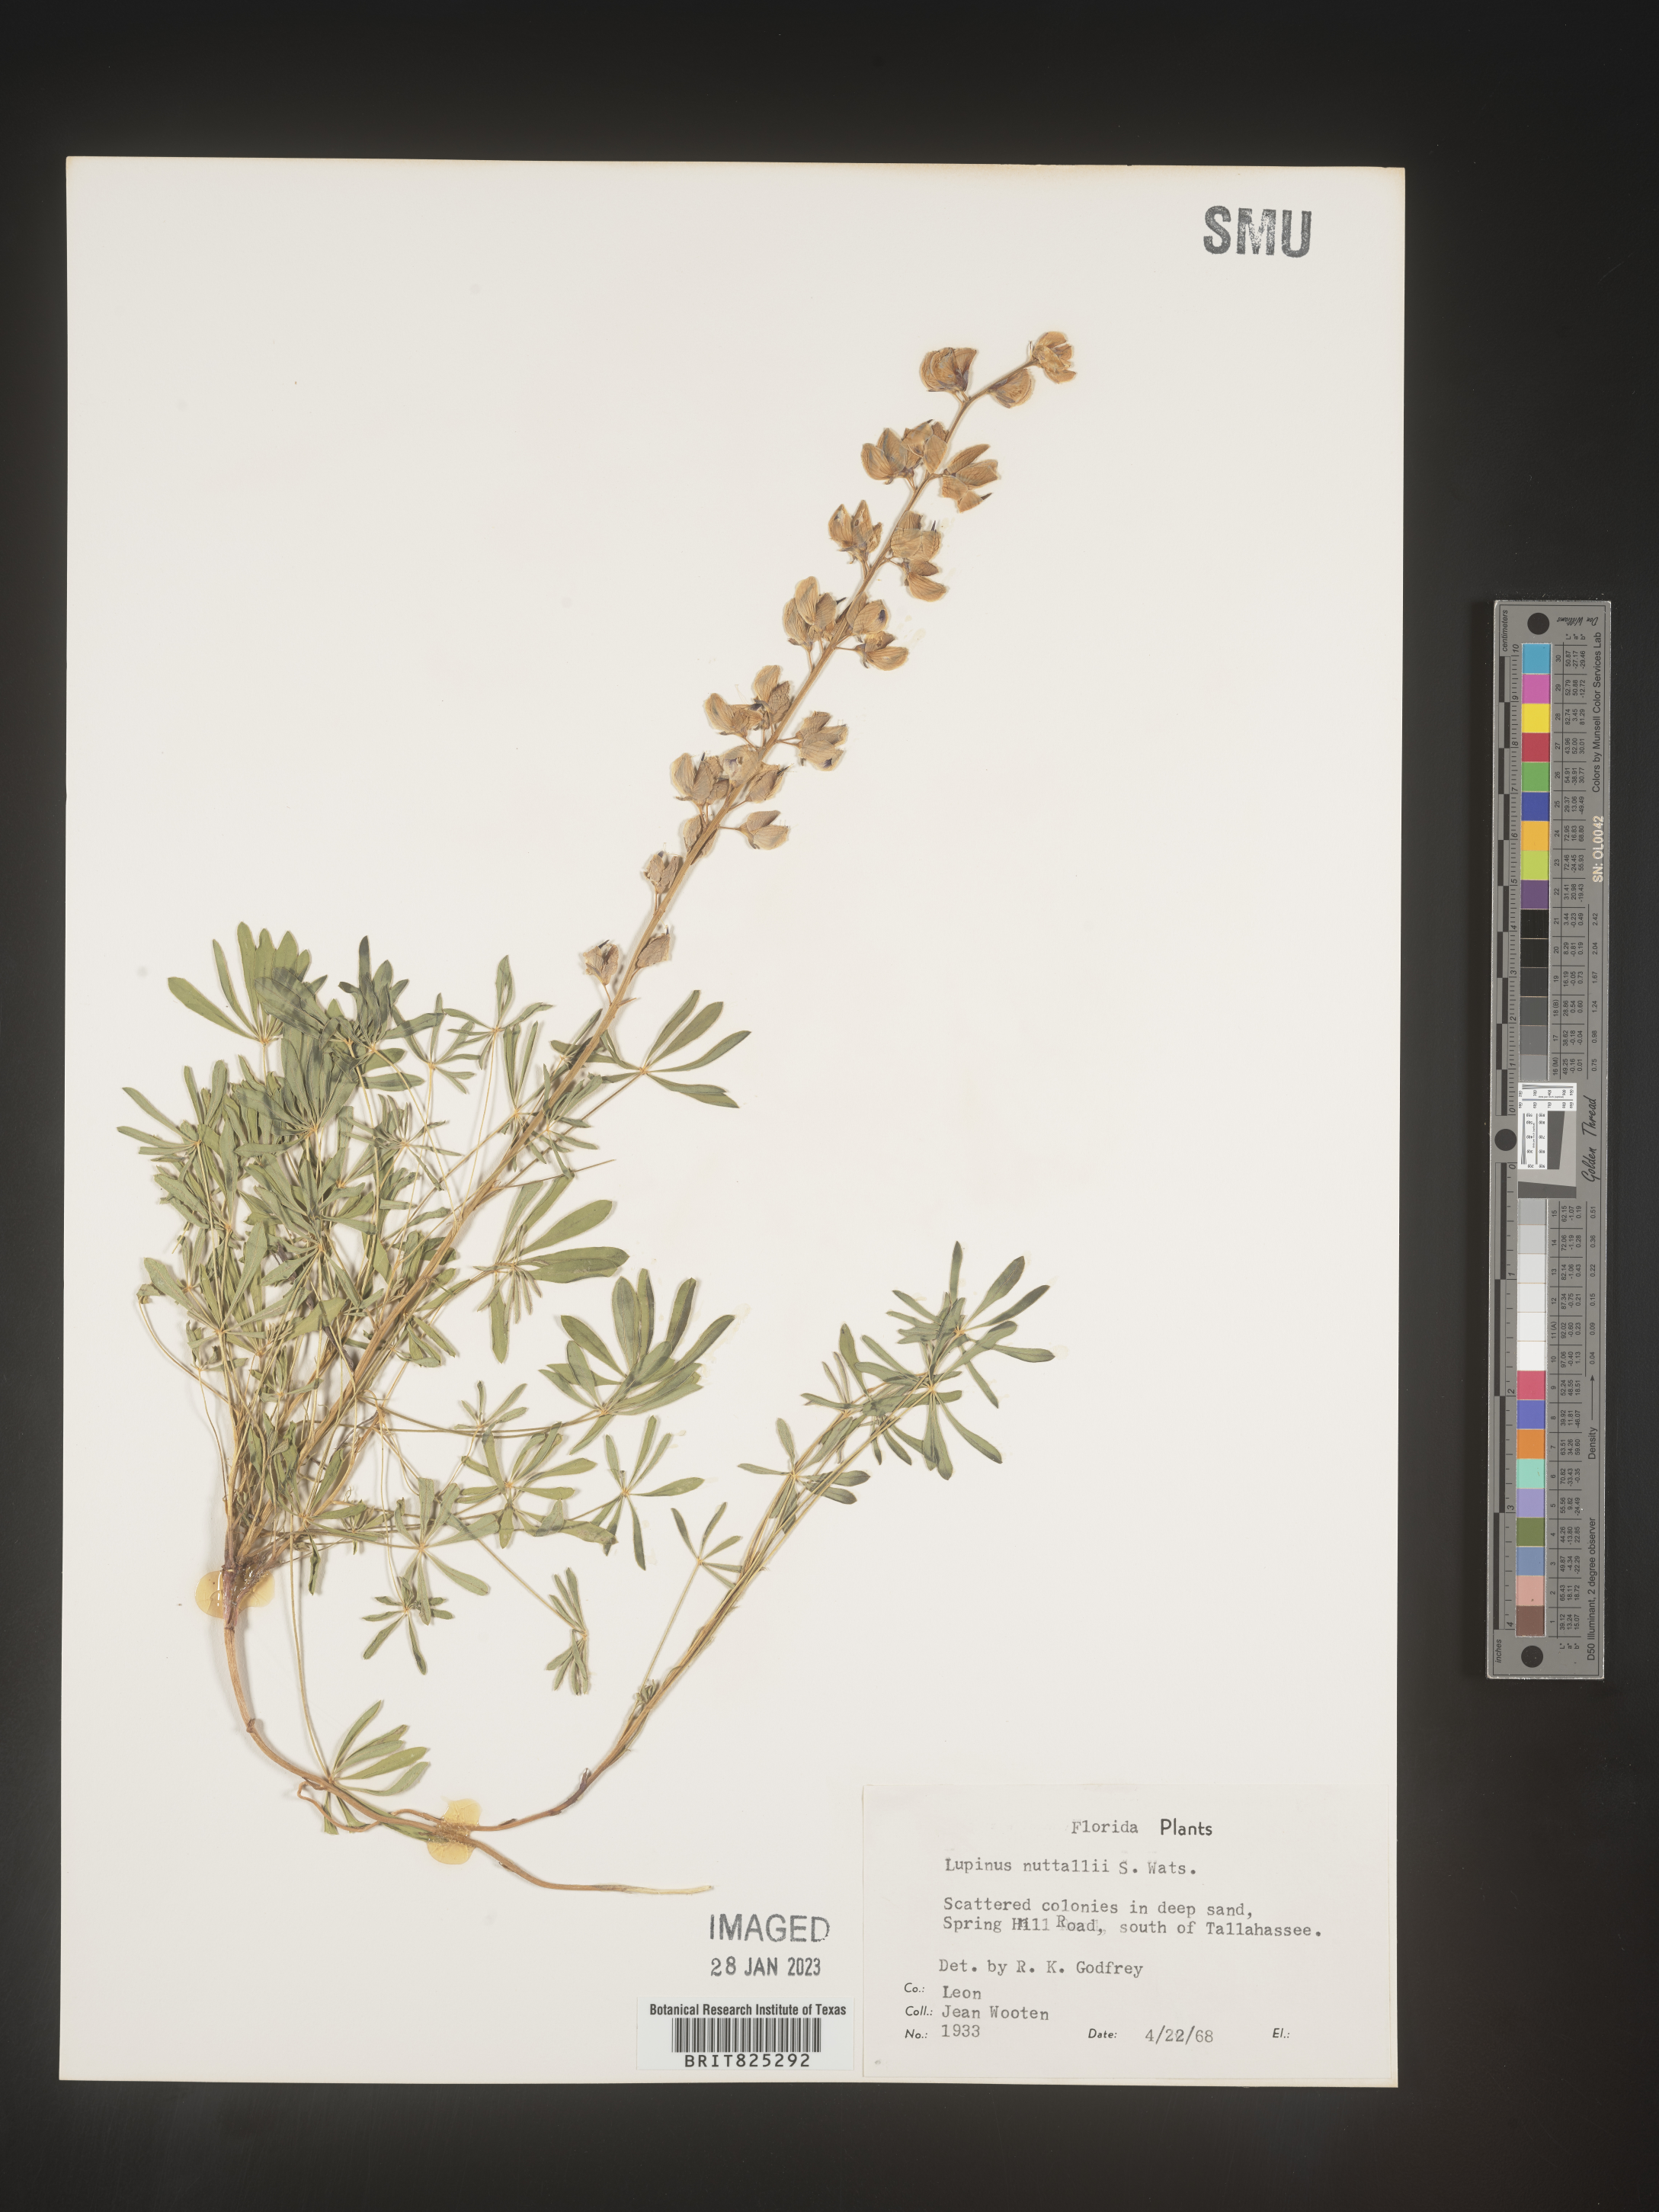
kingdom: Plantae
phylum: Tracheophyta
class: Magnoliopsida
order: Fabales
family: Fabaceae
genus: Lupinus
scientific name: Lupinus
